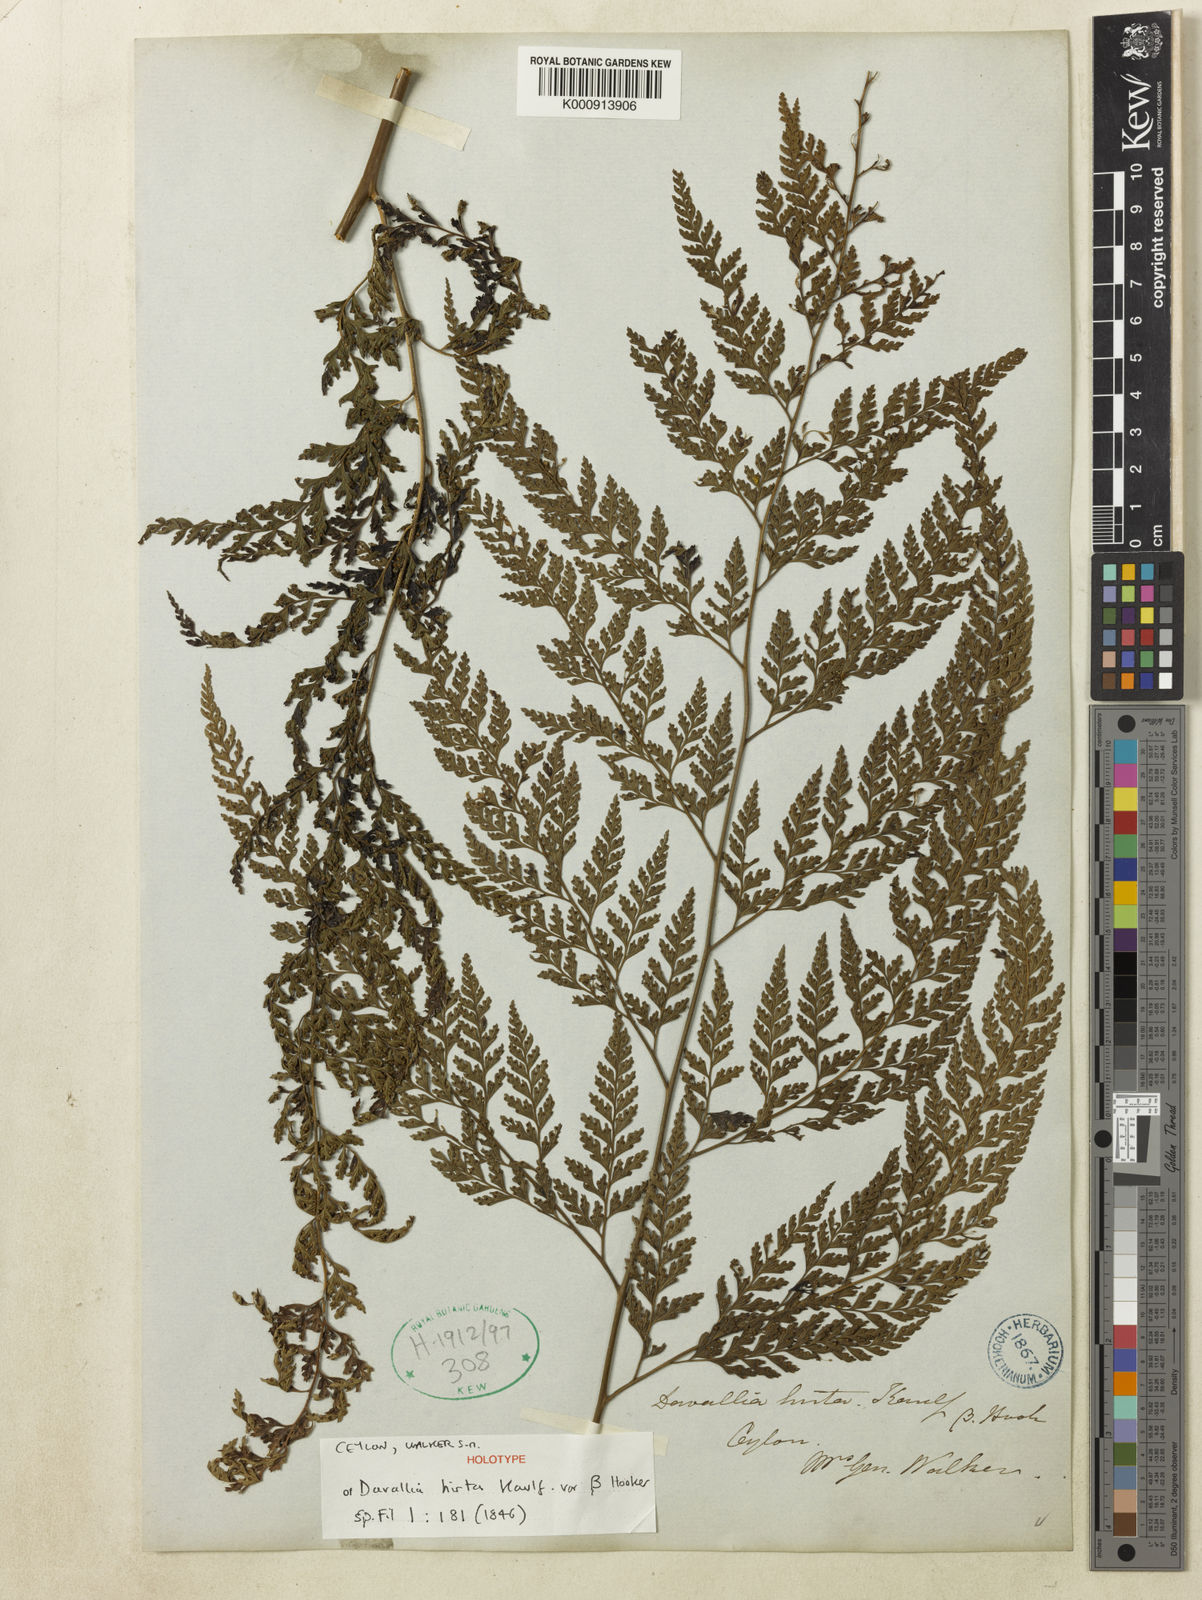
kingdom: Plantae
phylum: Tracheophyta
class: Polypodiopsida
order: Polypodiales
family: Dennstaedtiaceae
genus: Microlepia
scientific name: Microlepia firma
